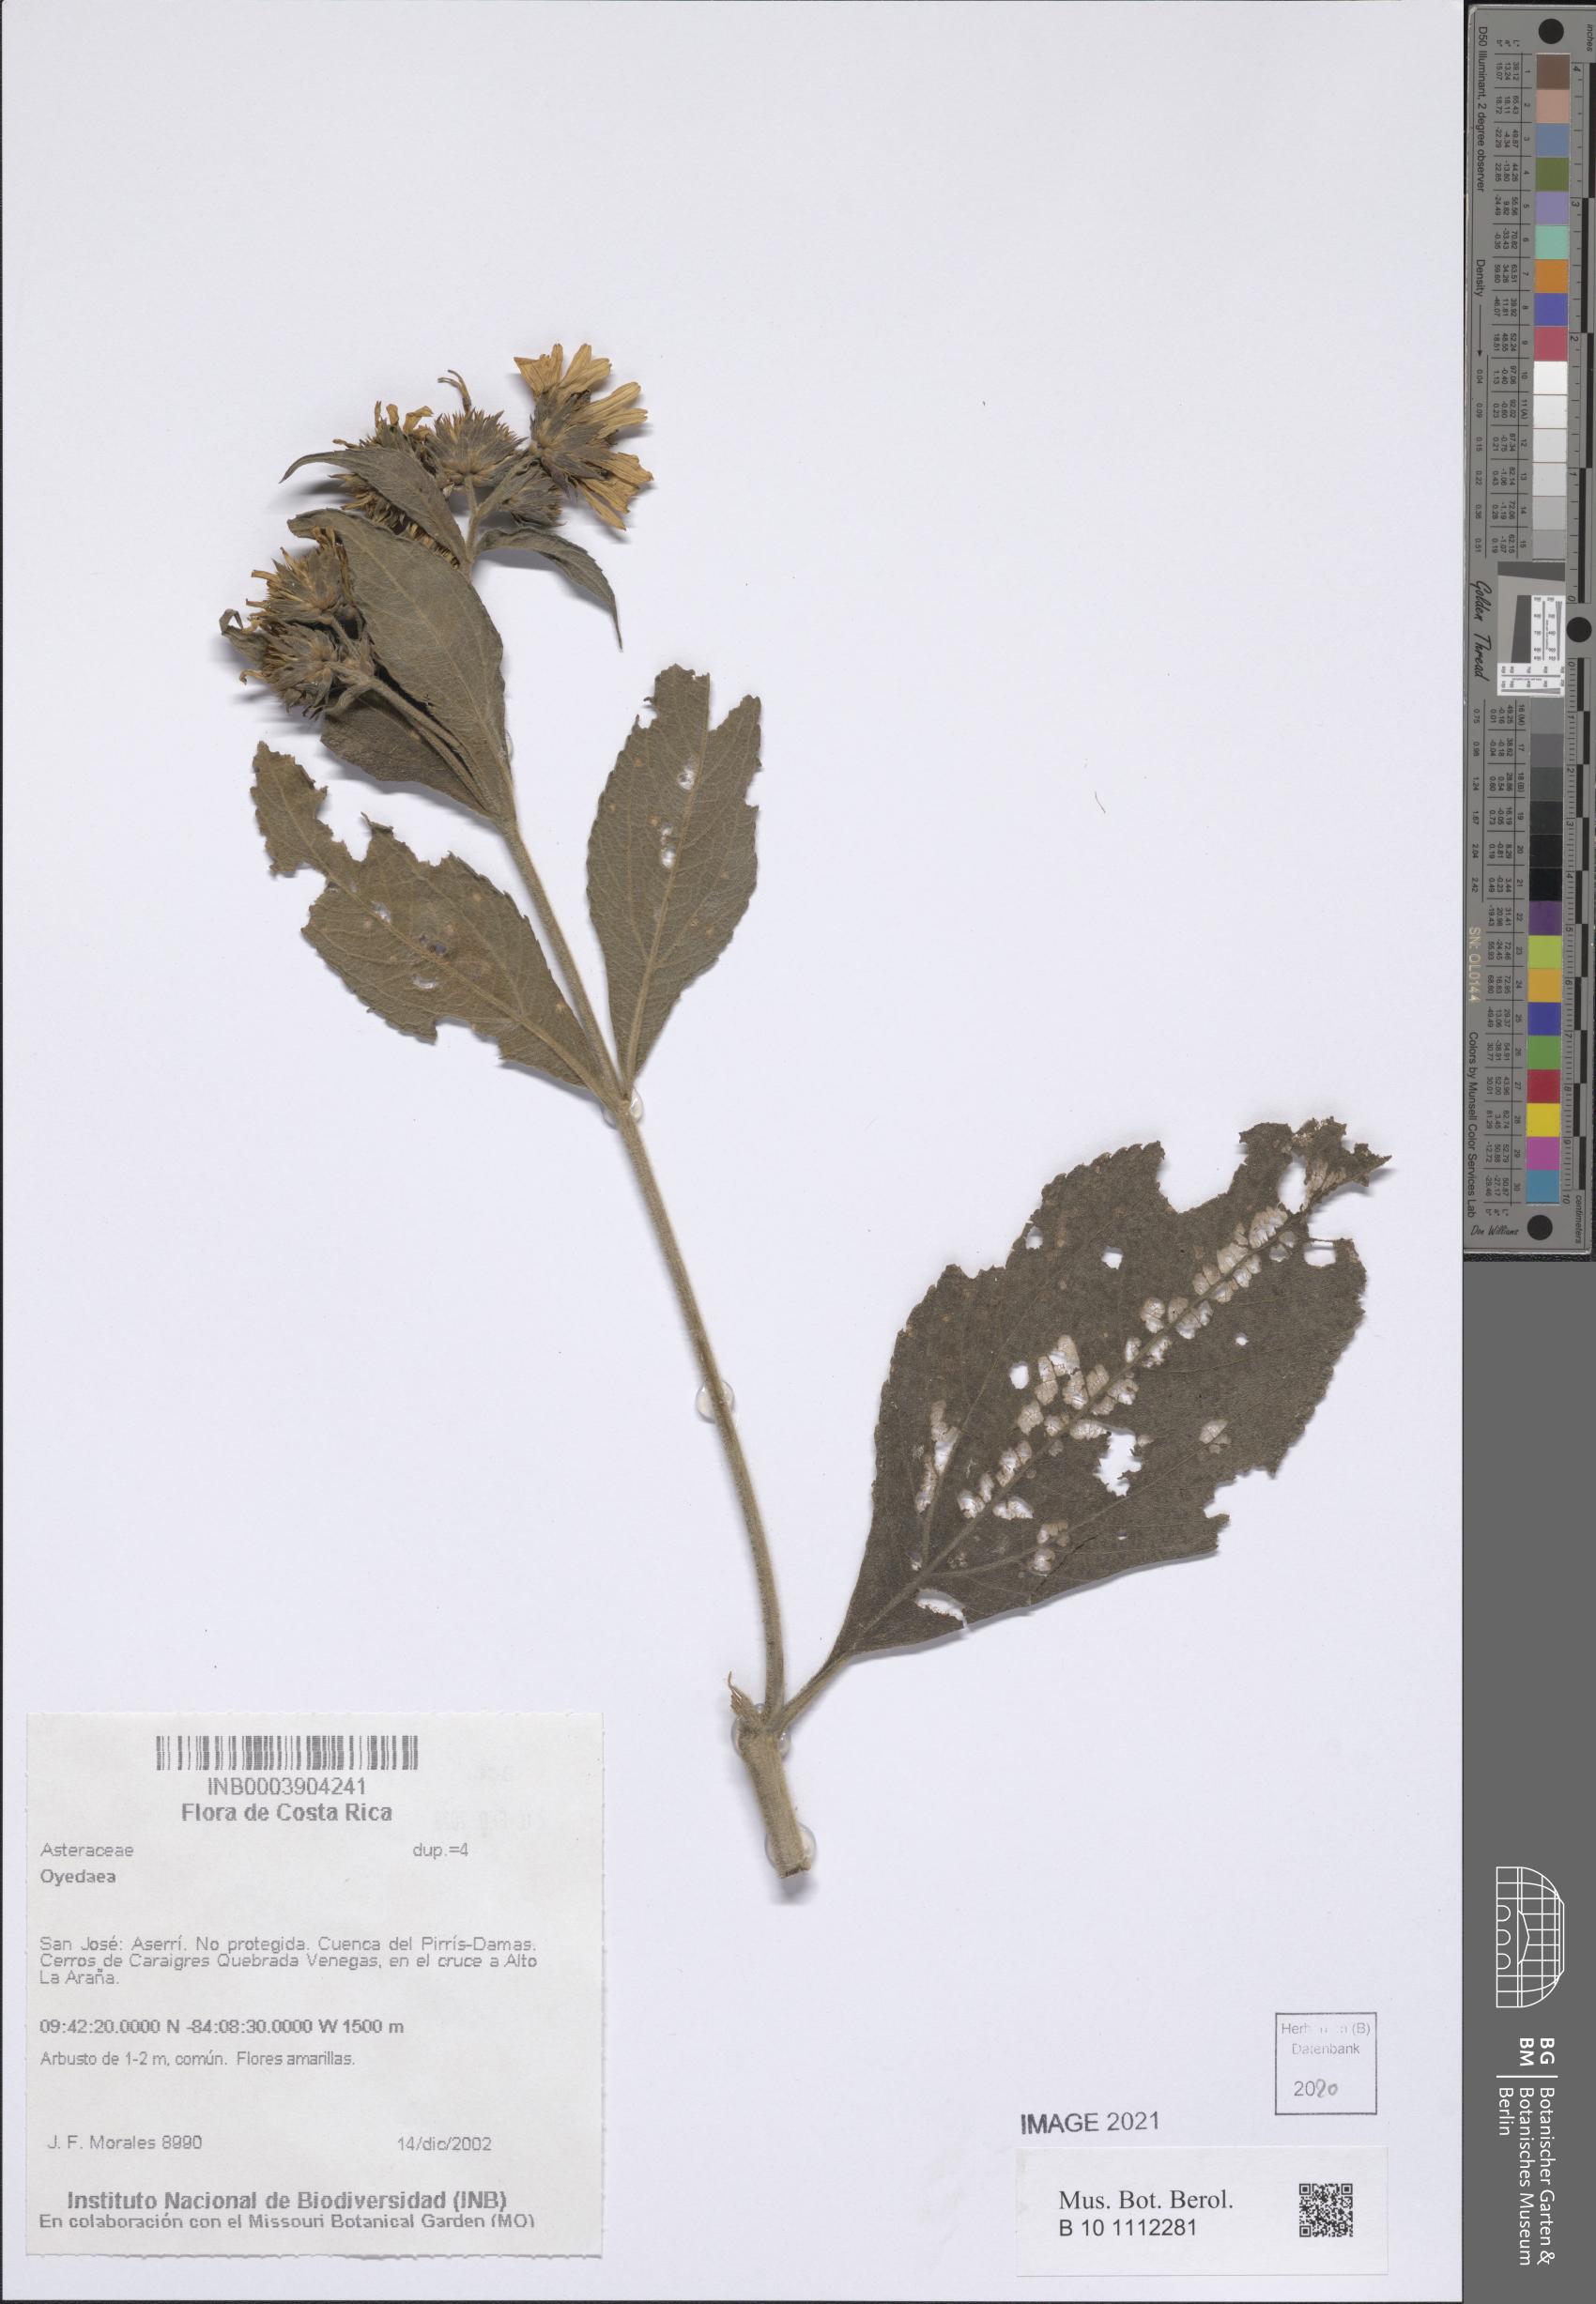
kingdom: Plantae
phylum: Tracheophyta
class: Magnoliopsida
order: Asterales
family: Asteraceae
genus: Oyedaea
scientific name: Oyedaea
